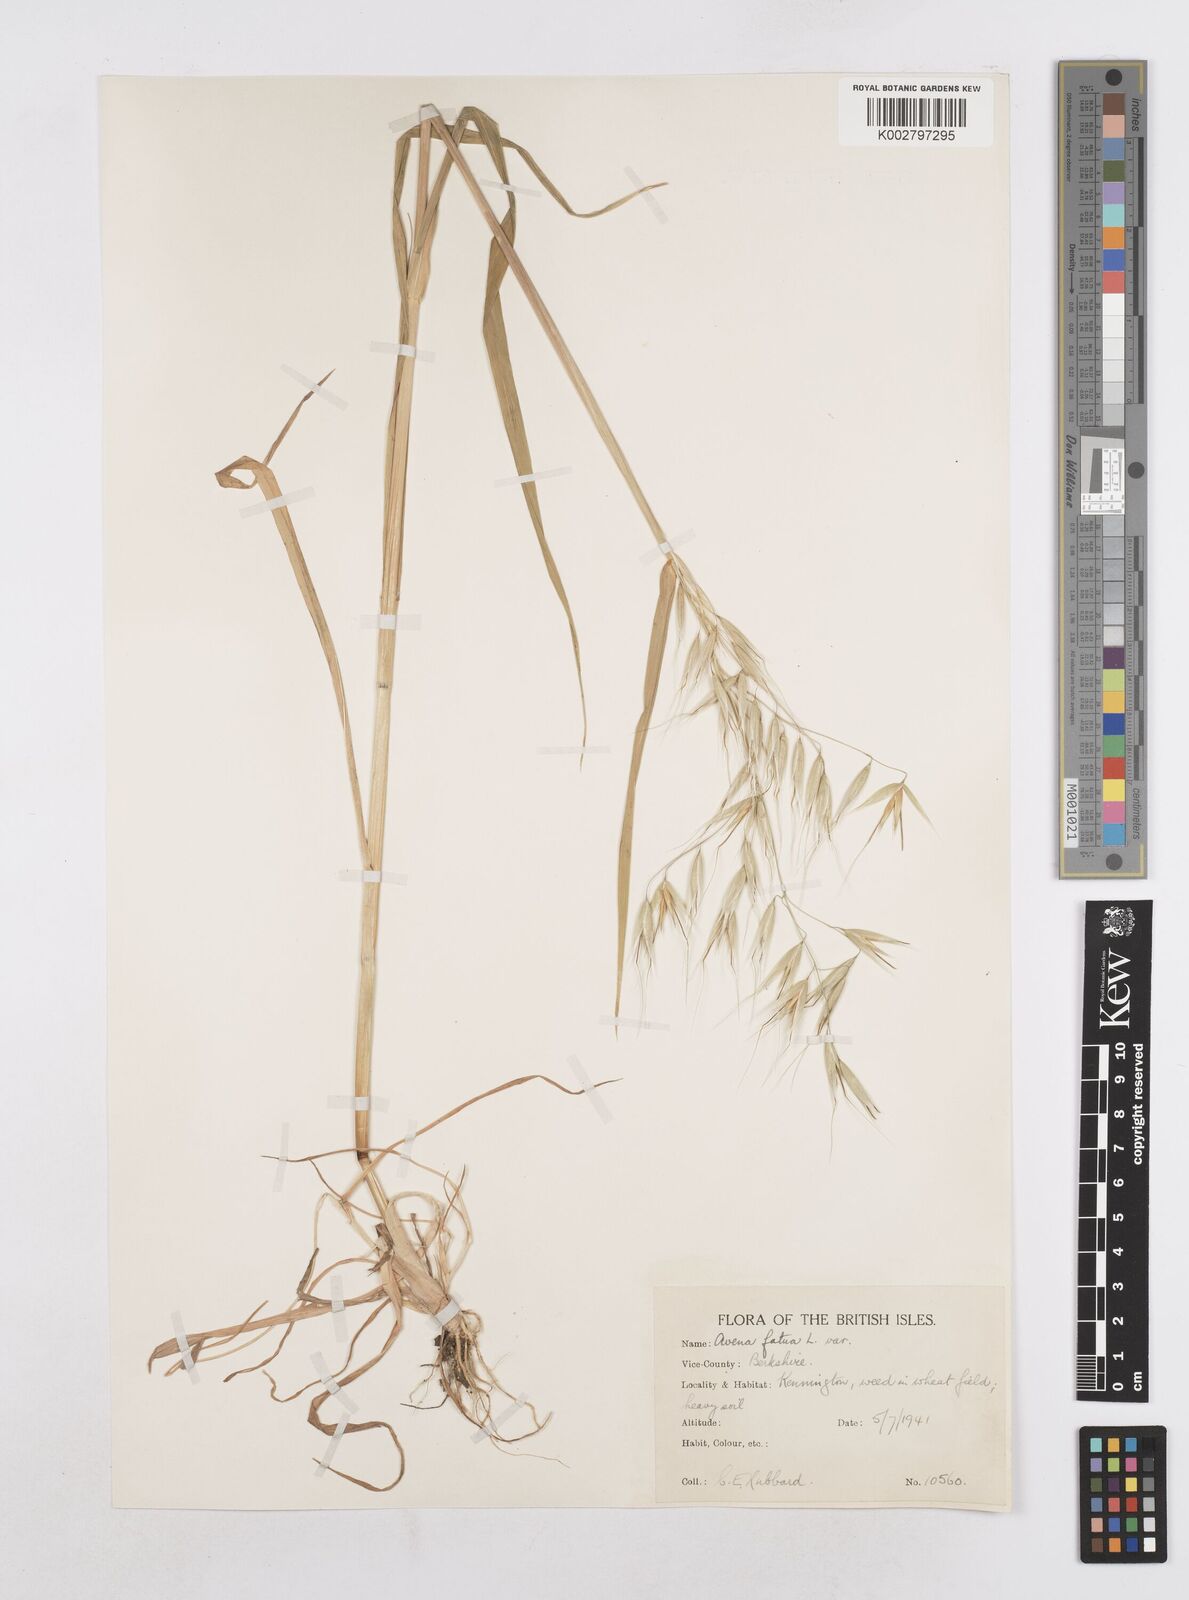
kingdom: Plantae
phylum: Tracheophyta
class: Liliopsida
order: Poales
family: Poaceae
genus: Avena
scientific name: Avena fatua
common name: Wild oat
